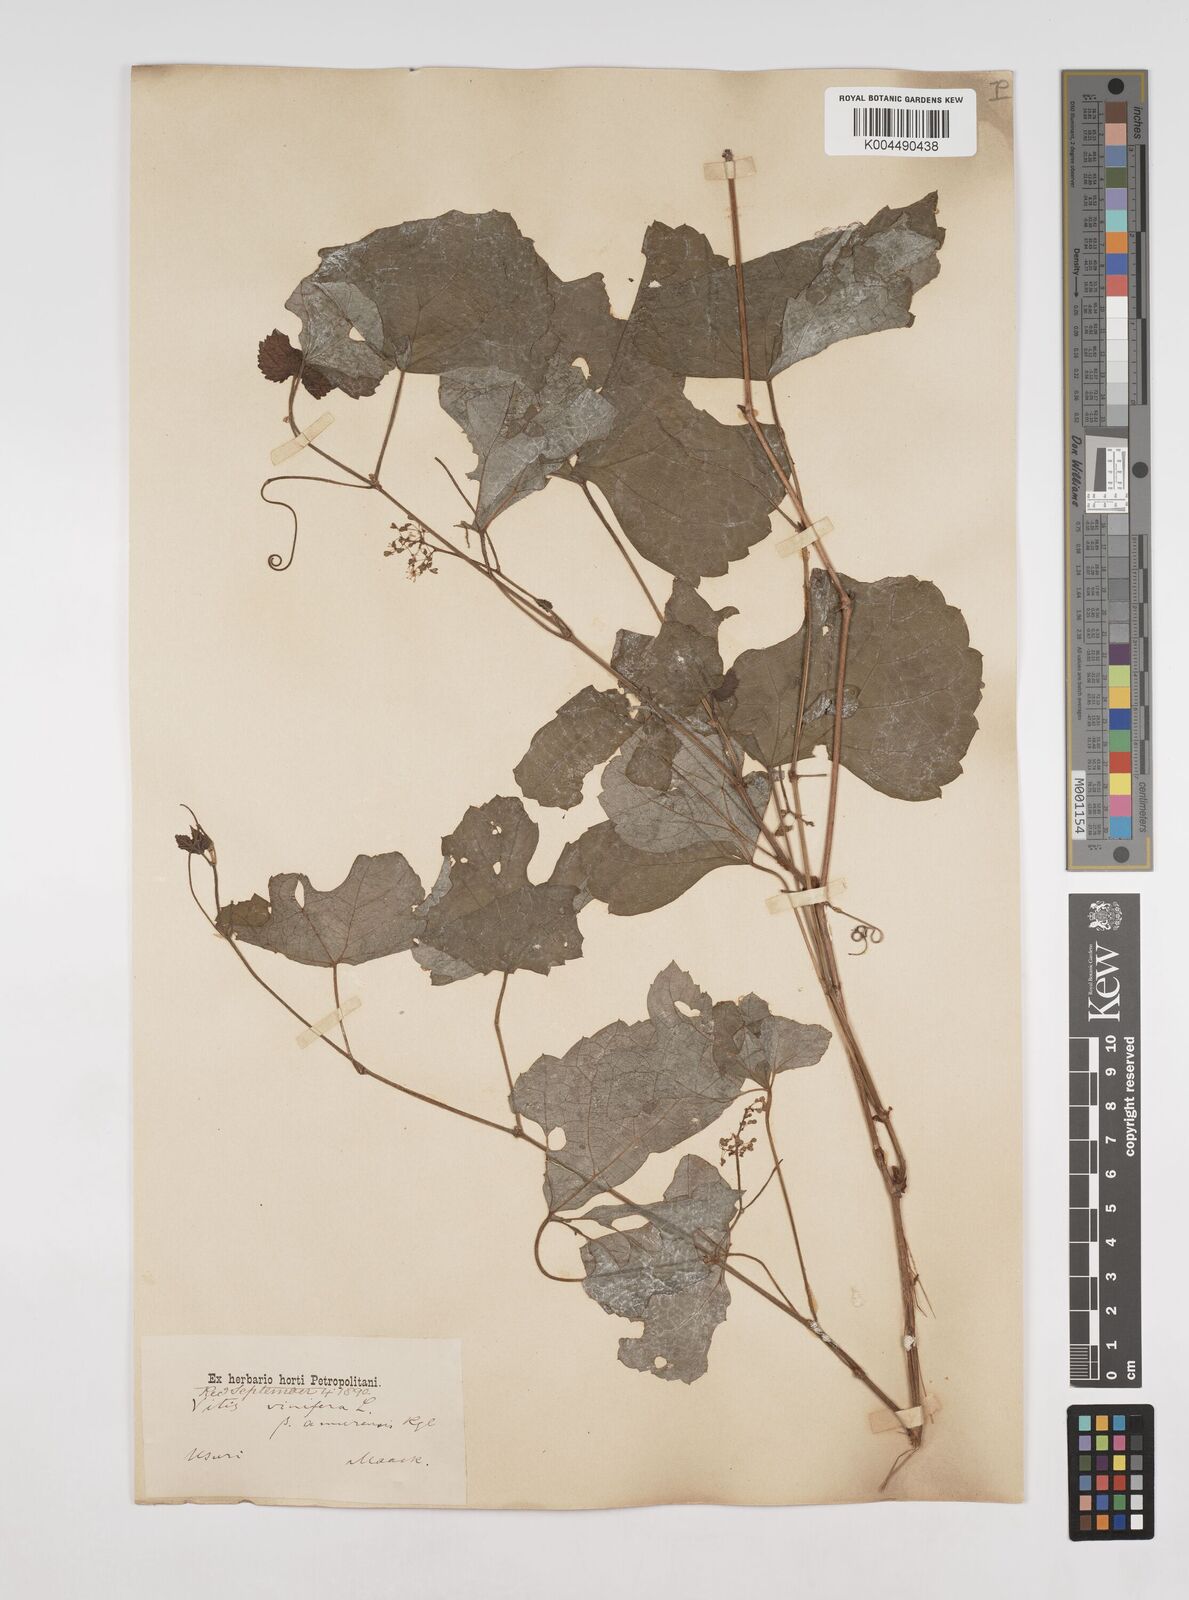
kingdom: Plantae
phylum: Tracheophyta
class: Magnoliopsida
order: Vitales
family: Vitaceae
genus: Vitis
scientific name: Vitis vinifera
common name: Grape-vine
